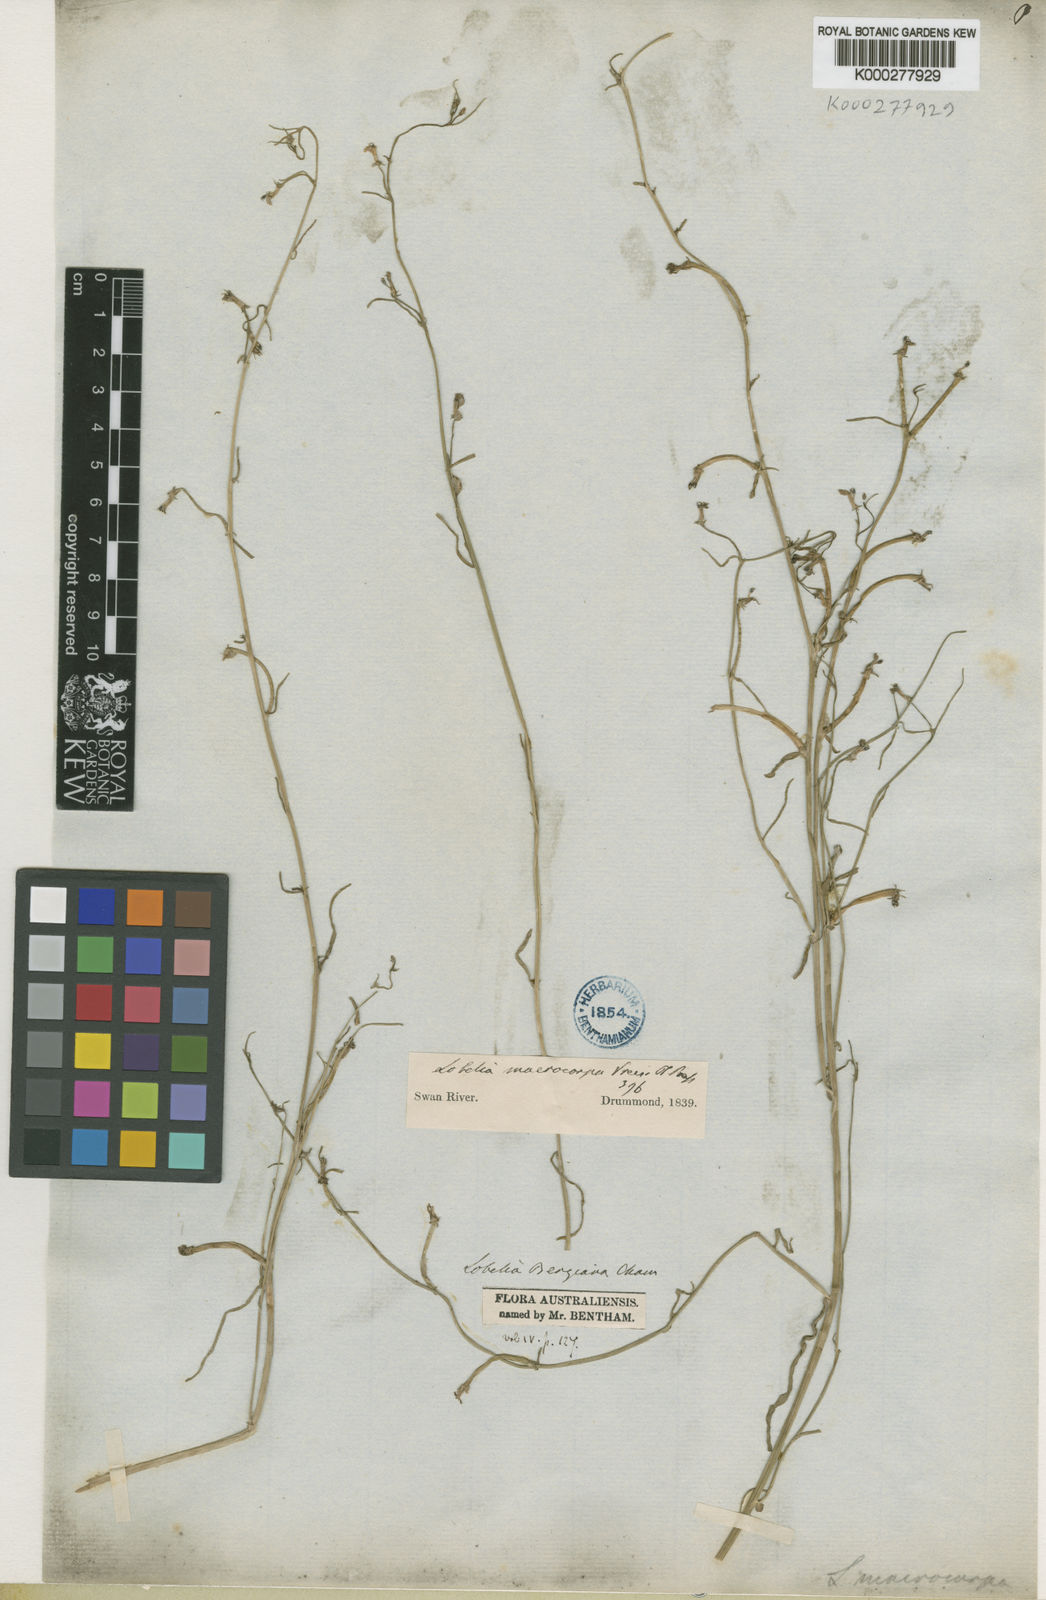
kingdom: Plantae
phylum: Tracheophyta
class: Magnoliopsida
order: Asterales
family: Campanulaceae
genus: Grammatotheca
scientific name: Grammatotheca bergiana
